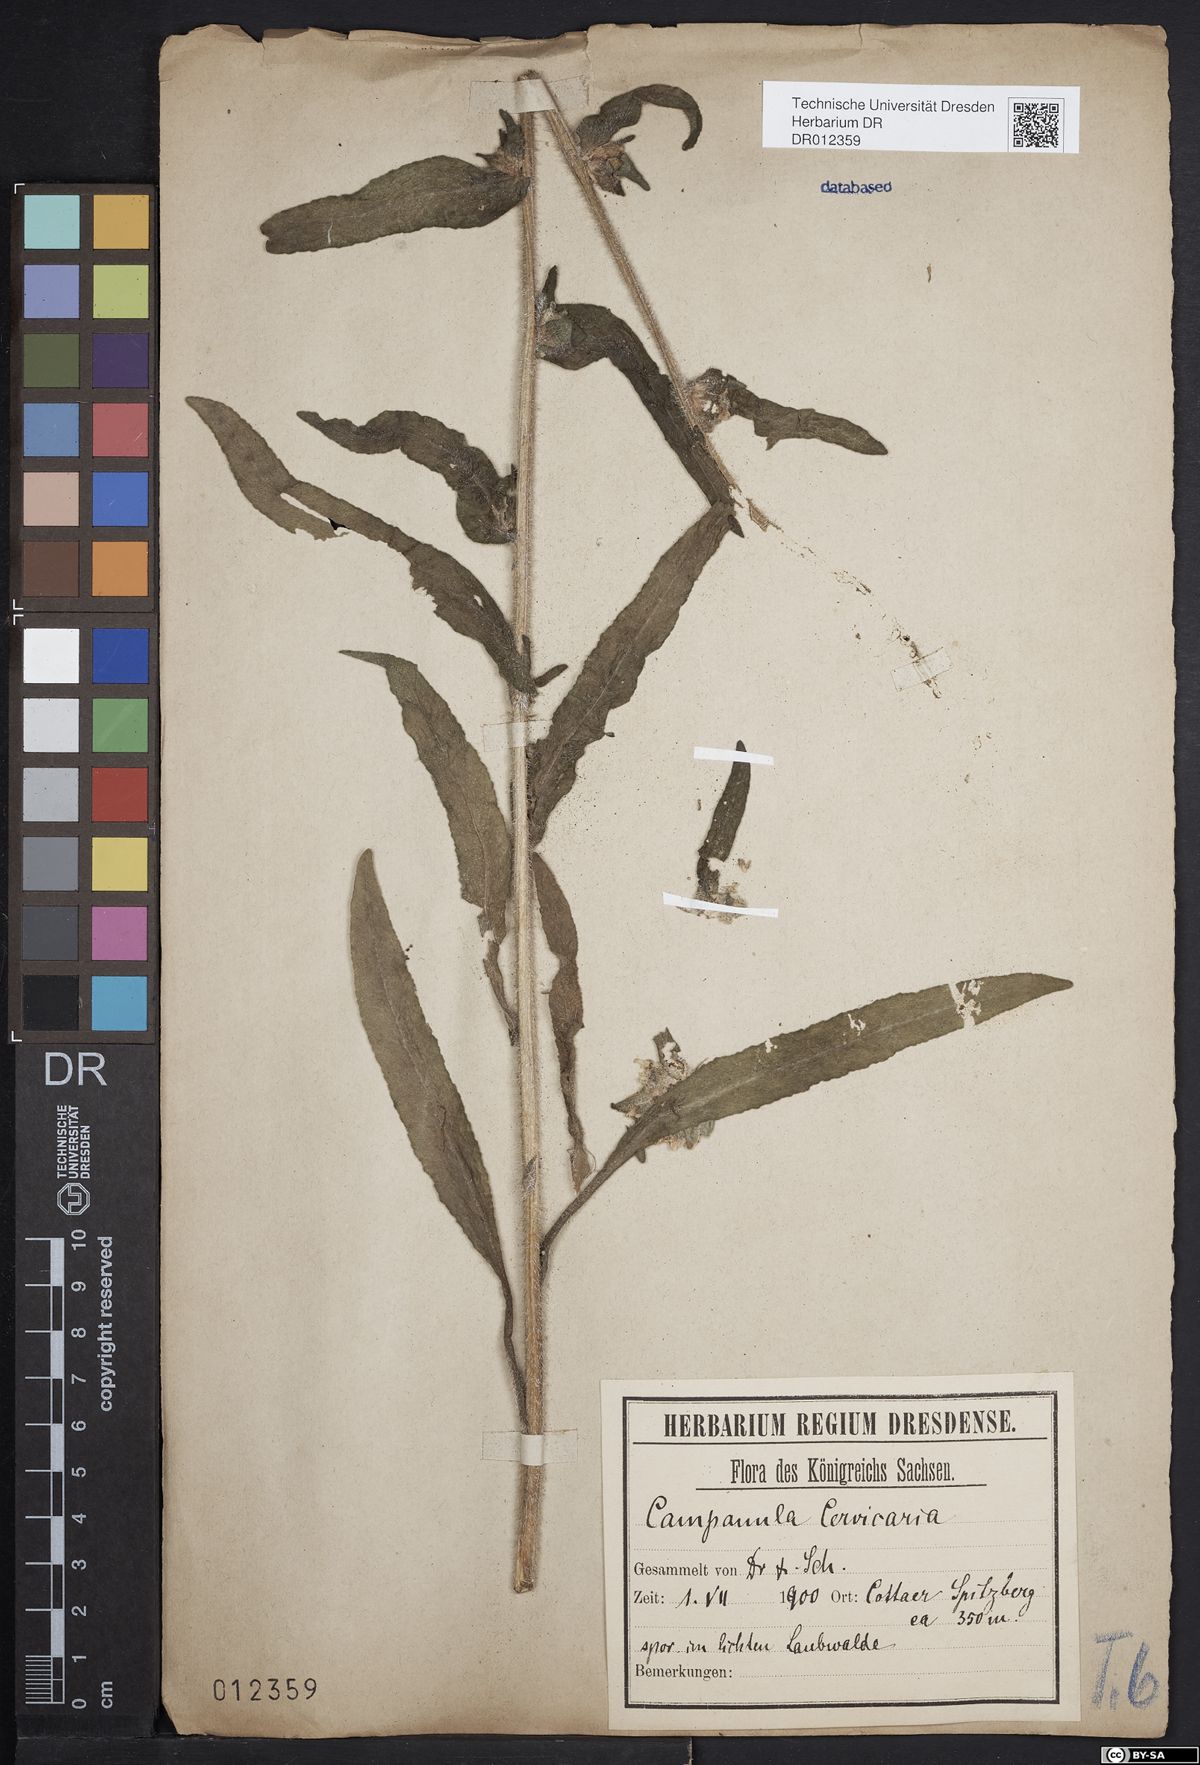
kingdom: Plantae
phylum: Tracheophyta
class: Magnoliopsida
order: Asterales
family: Campanulaceae
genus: Campanula
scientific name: Campanula cervicaria
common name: Bristly bellflower
